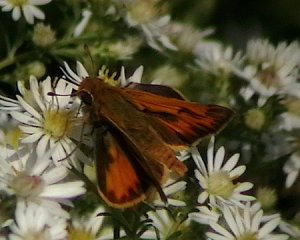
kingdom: Animalia
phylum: Arthropoda
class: Insecta
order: Lepidoptera
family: Hesperiidae
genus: Hylephila
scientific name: Hylephila phyleus
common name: Fiery Skipper
